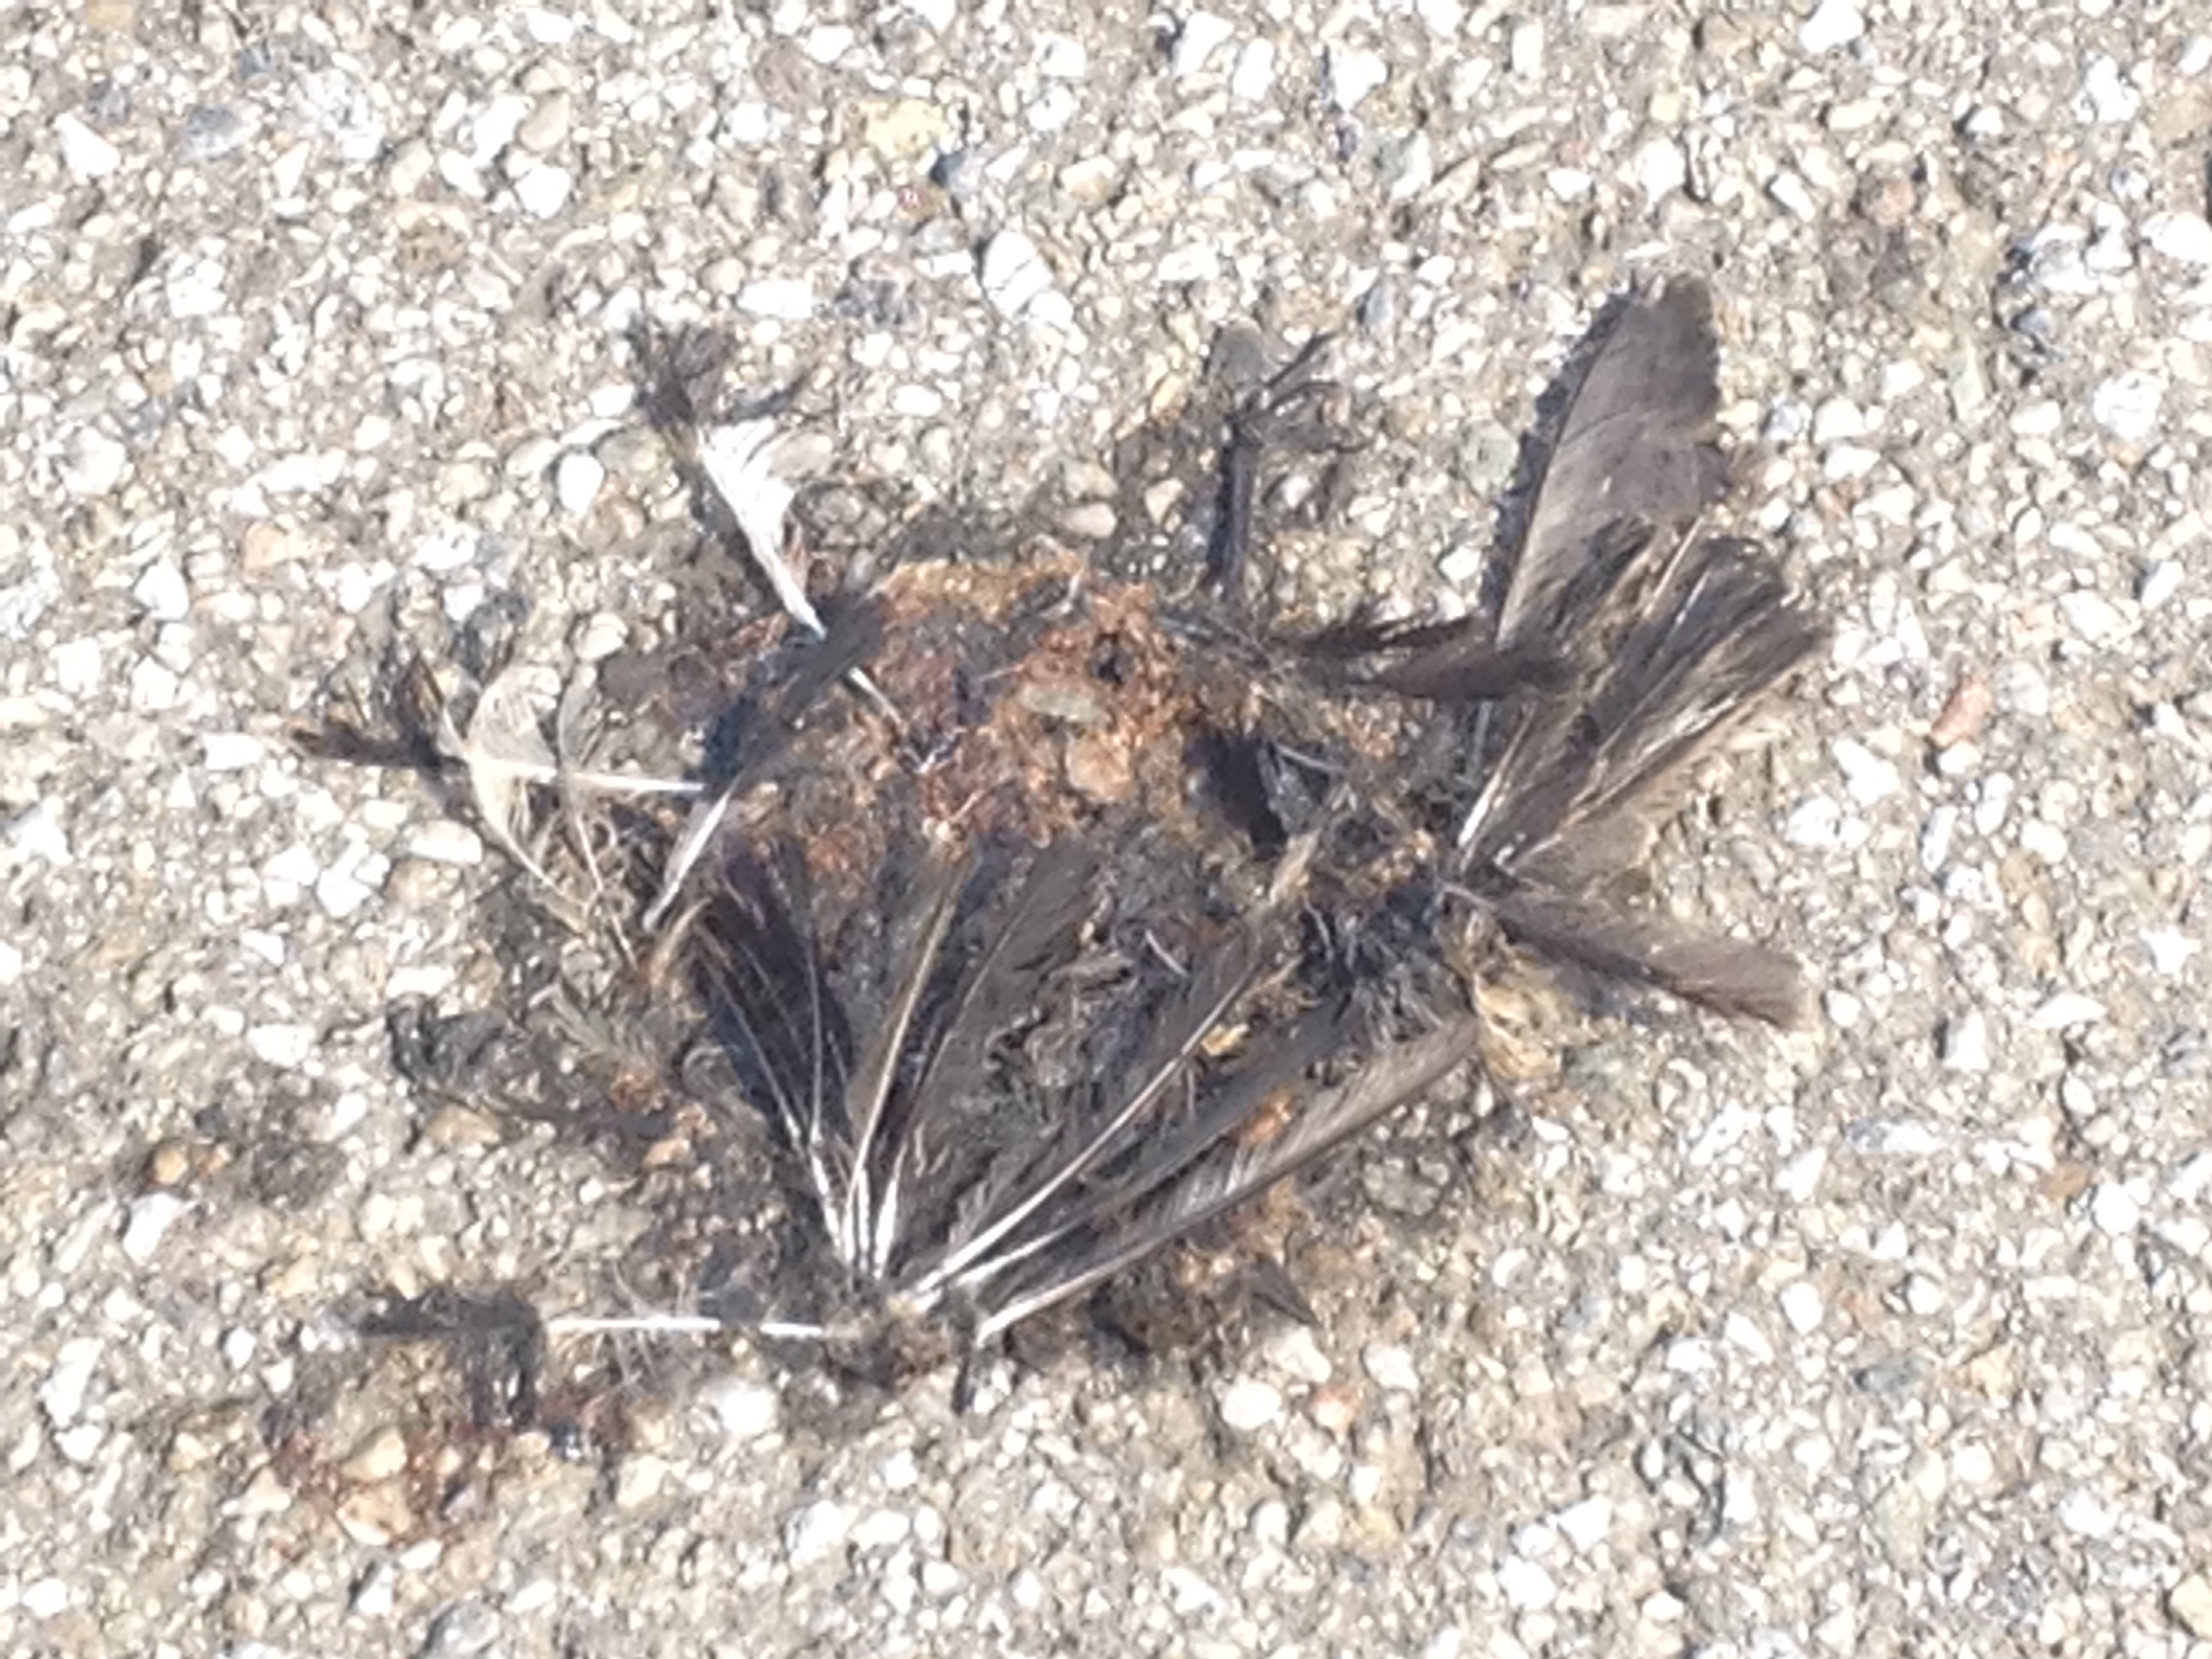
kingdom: Animalia
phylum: Chordata
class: Aves
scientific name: Aves
